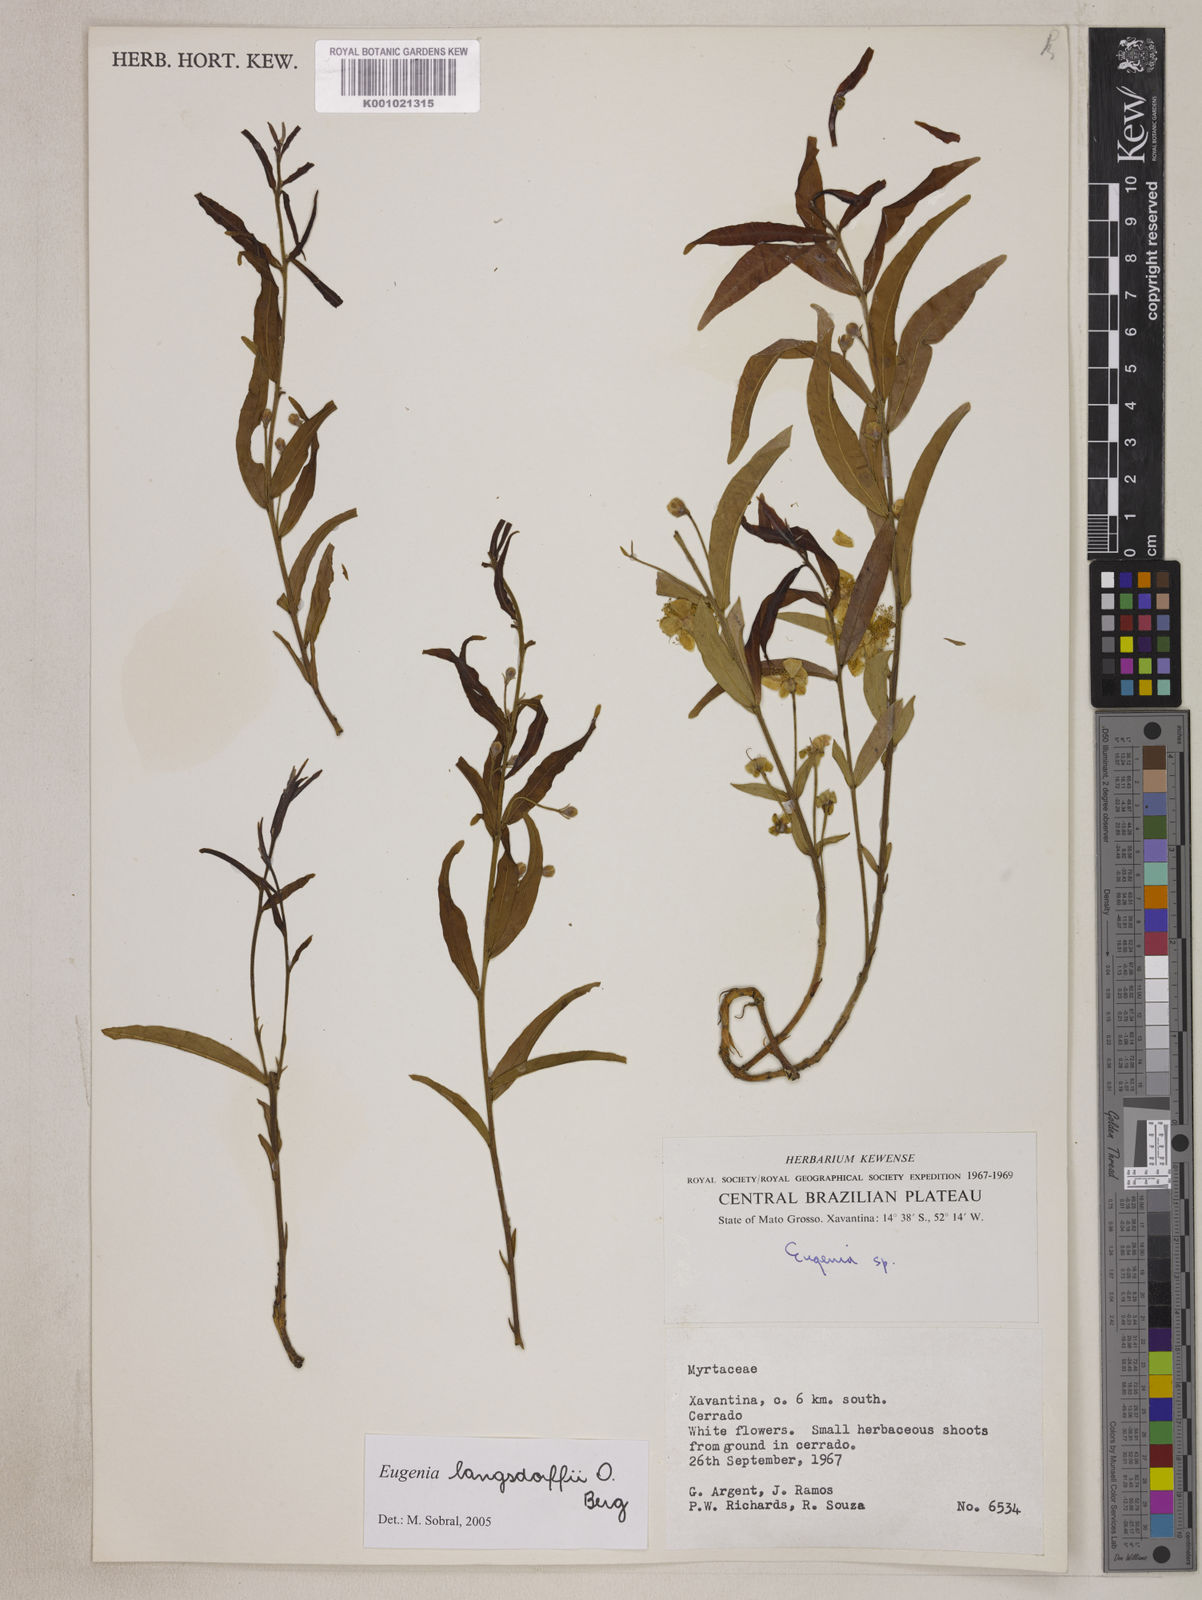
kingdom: Plantae
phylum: Tracheophyta
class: Magnoliopsida
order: Myrtales
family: Myrtaceae
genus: Eugenia
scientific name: Eugenia langsdorffii
